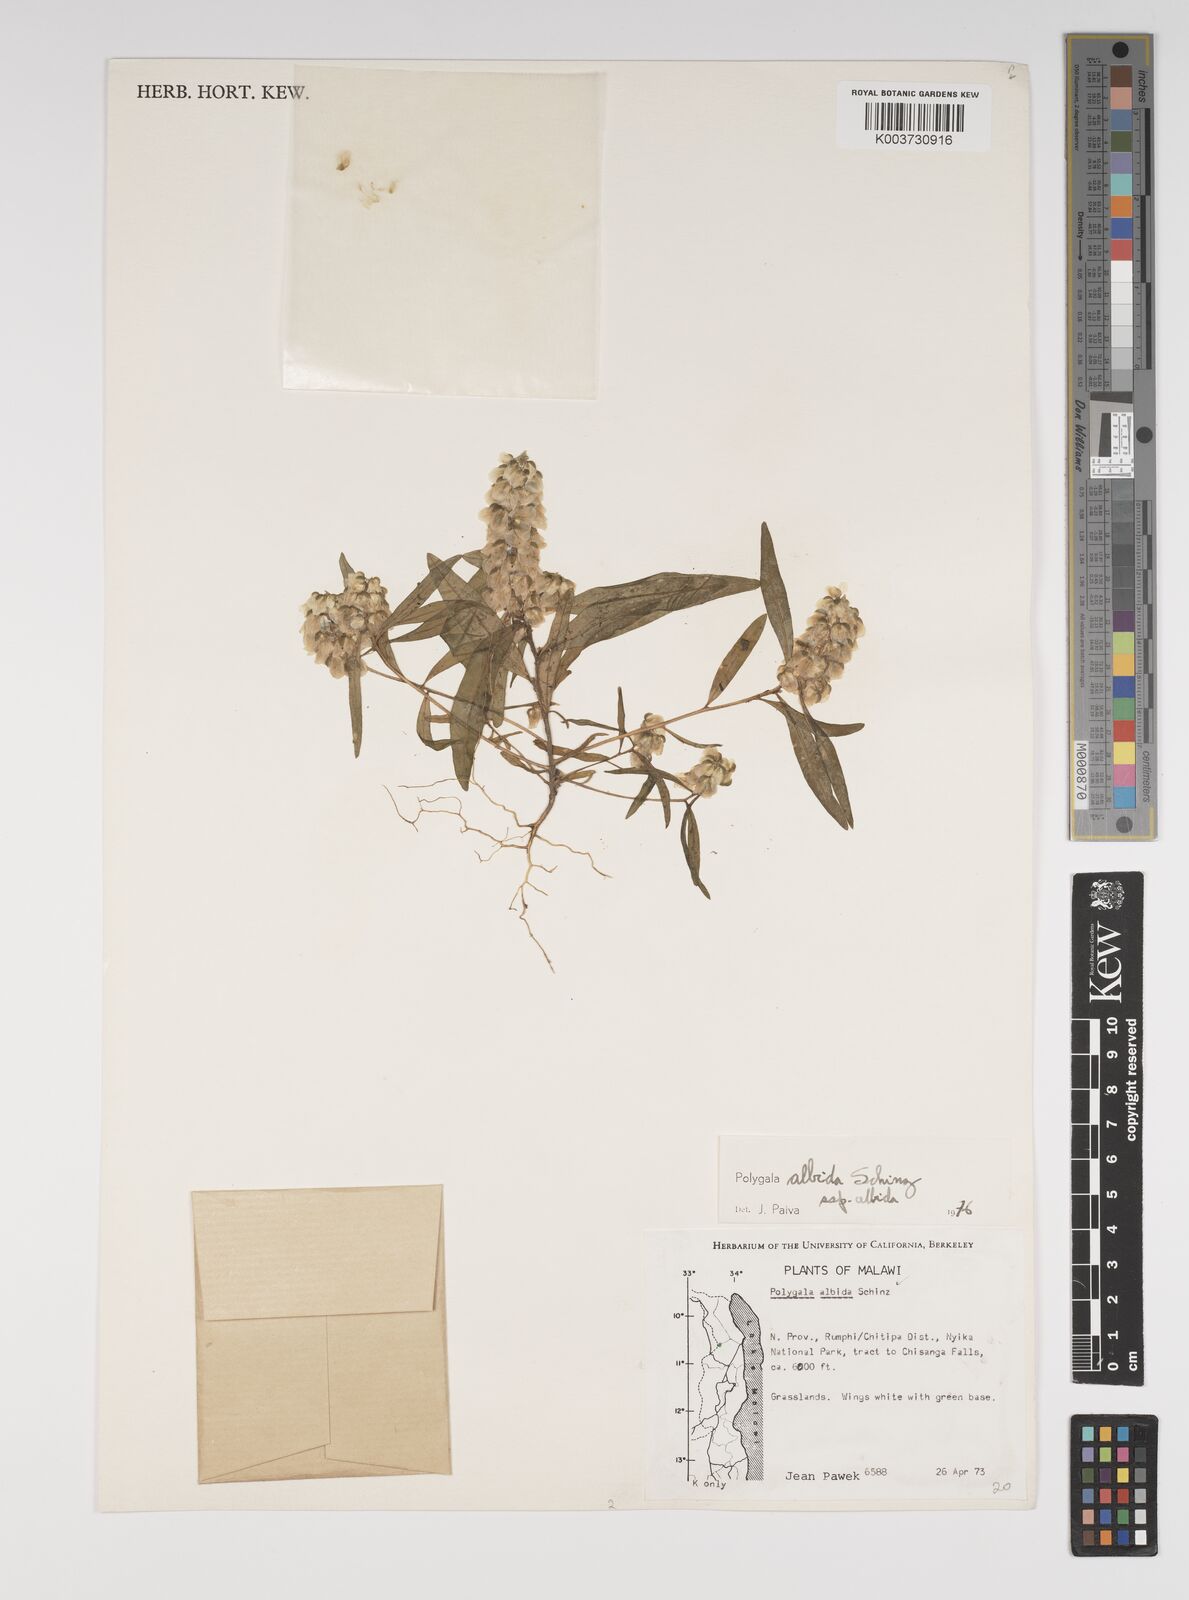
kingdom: Plantae
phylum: Tracheophyta
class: Magnoliopsida
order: Fabales
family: Polygalaceae
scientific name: Polygalaceae
